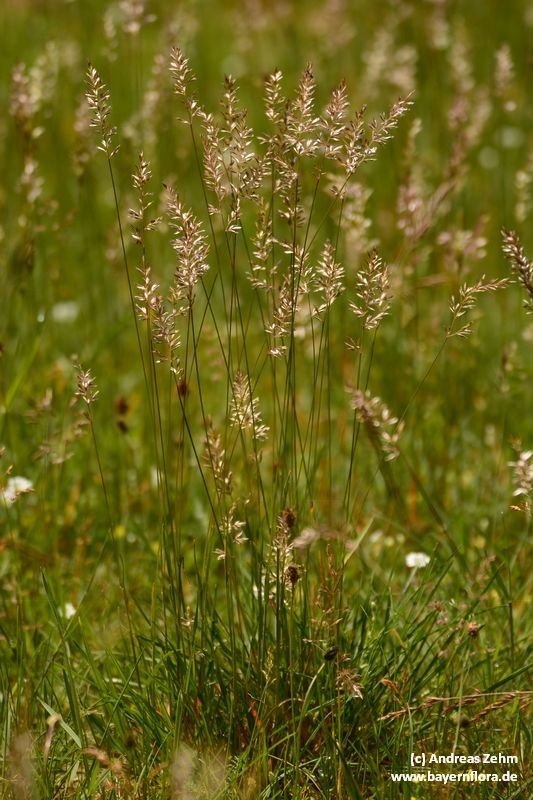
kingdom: Plantae
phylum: Tracheophyta
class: Liliopsida
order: Poales
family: Poaceae
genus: Koeleria
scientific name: Koeleria pyramidata
